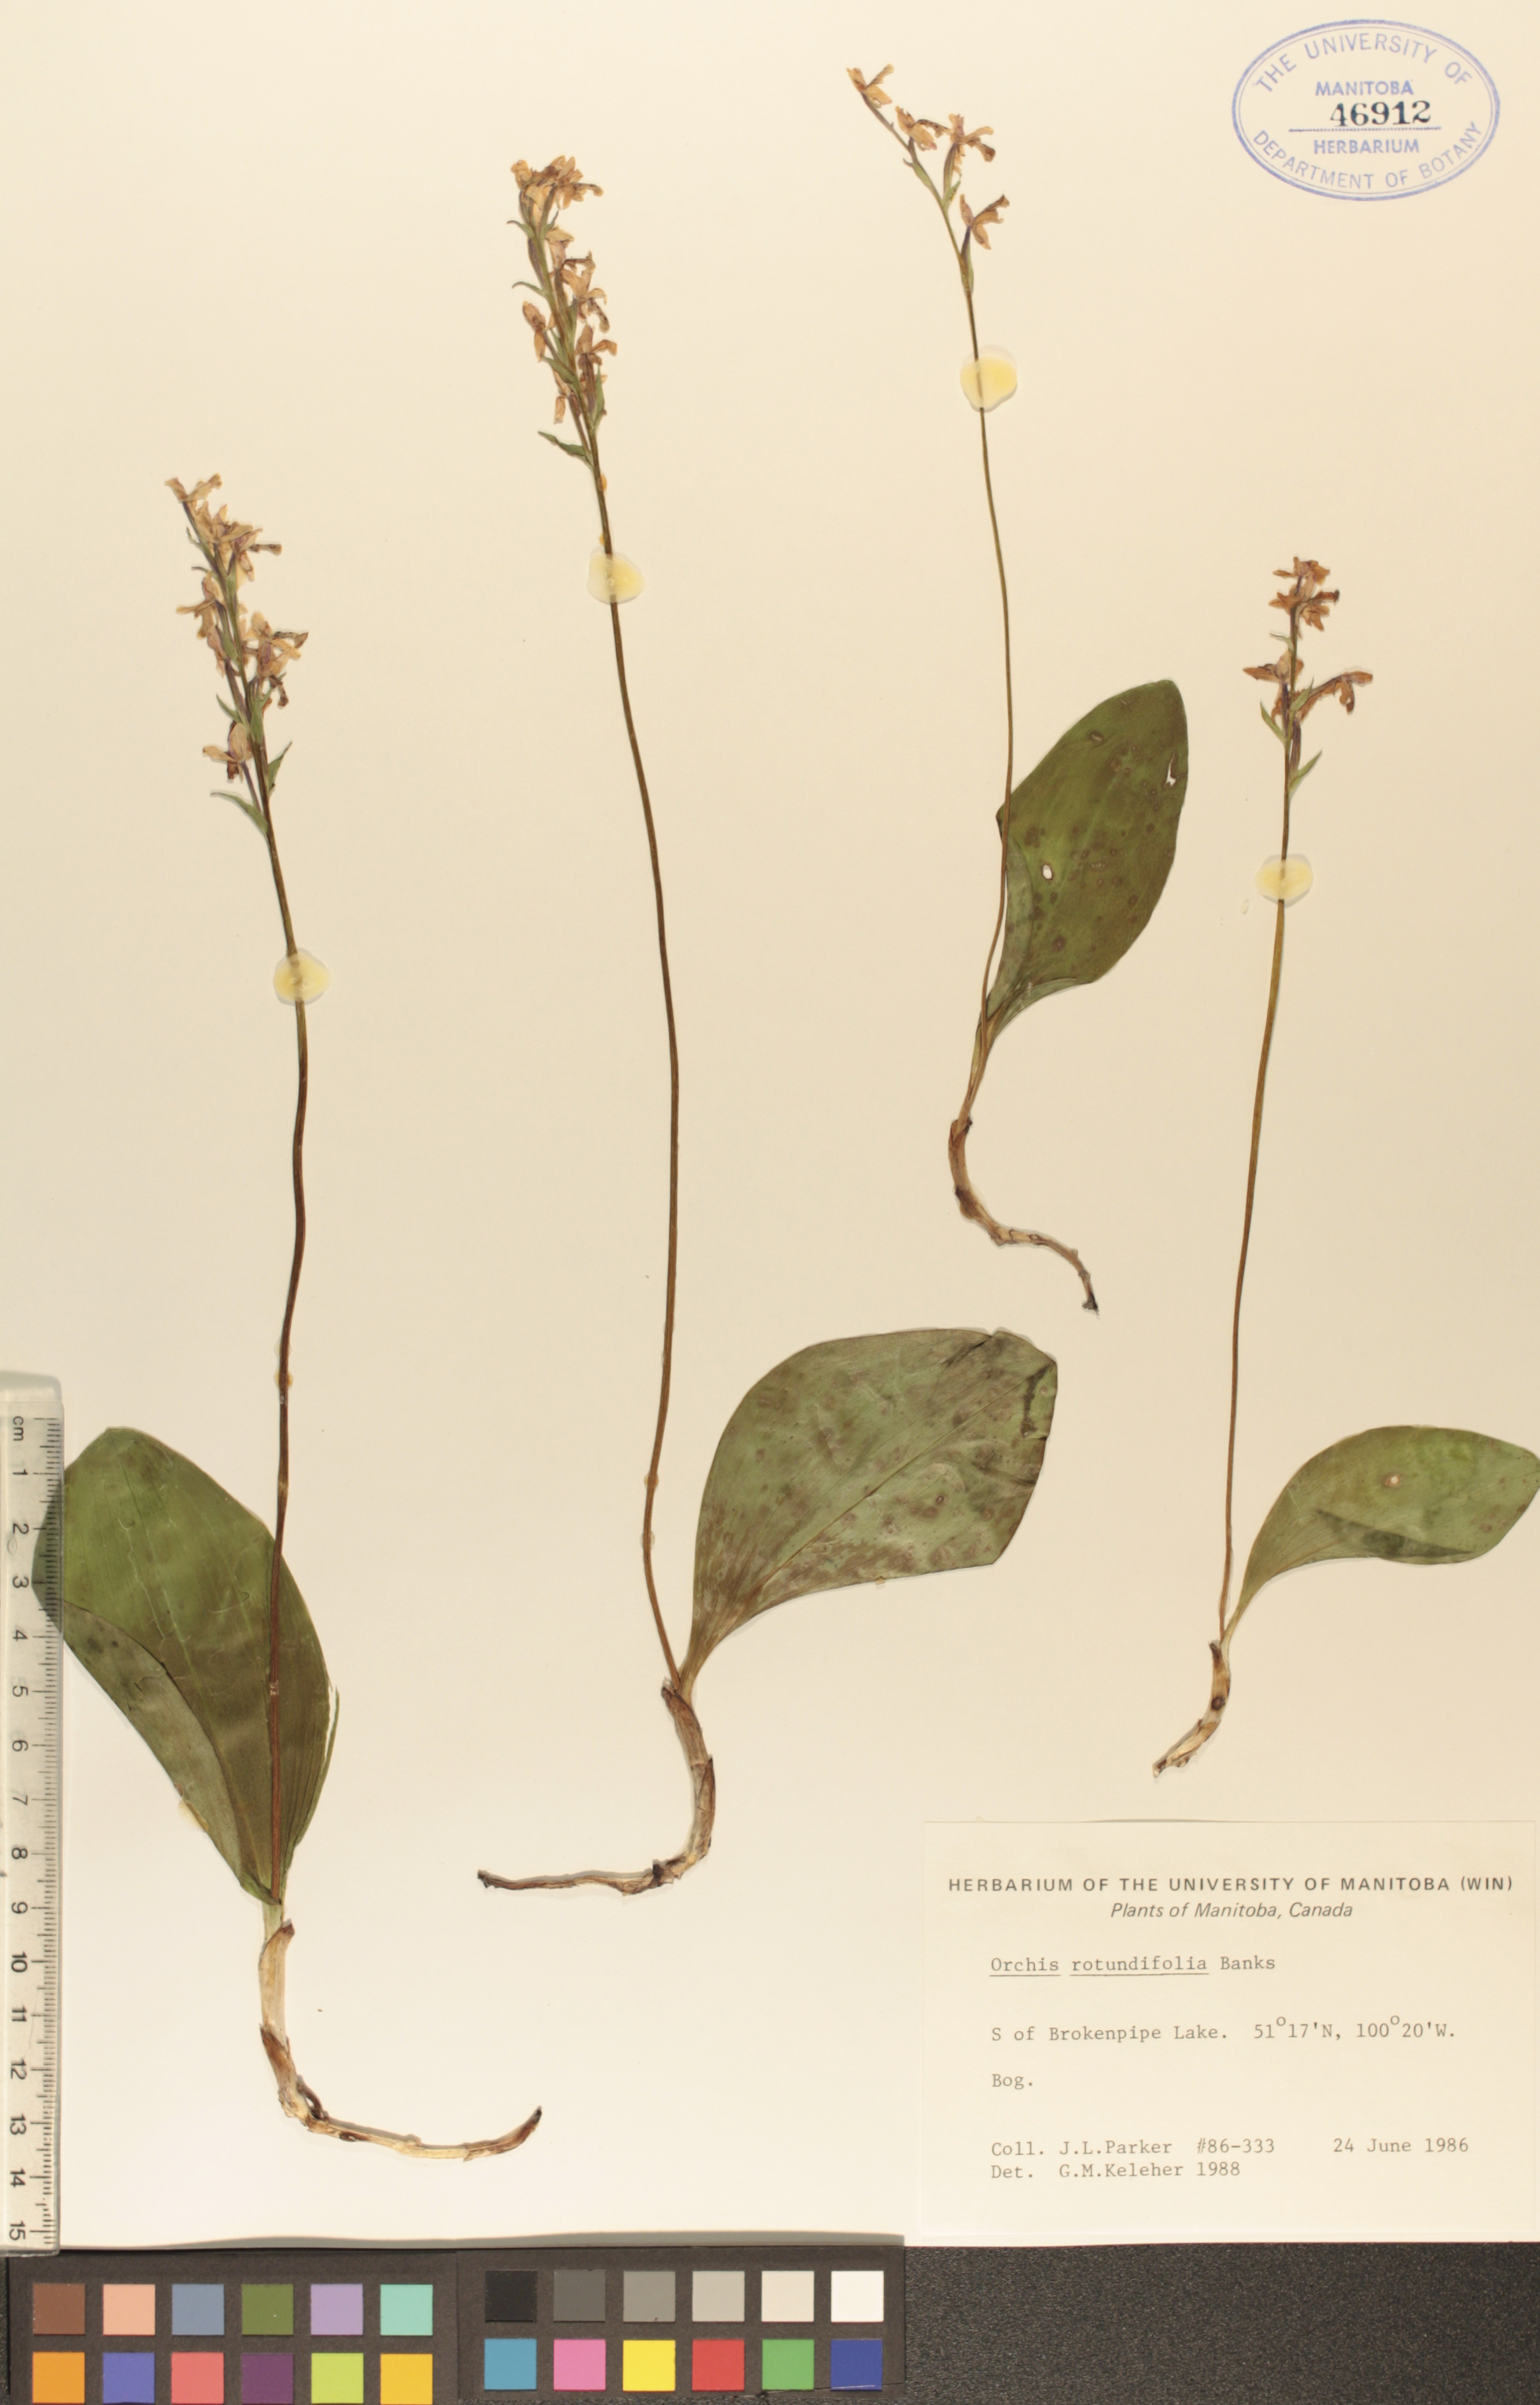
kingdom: Plantae
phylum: Tracheophyta
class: Liliopsida
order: Asparagales
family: Orchidaceae
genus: Galearis
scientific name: Galearis rotundifolia
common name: One-leaved orchis
